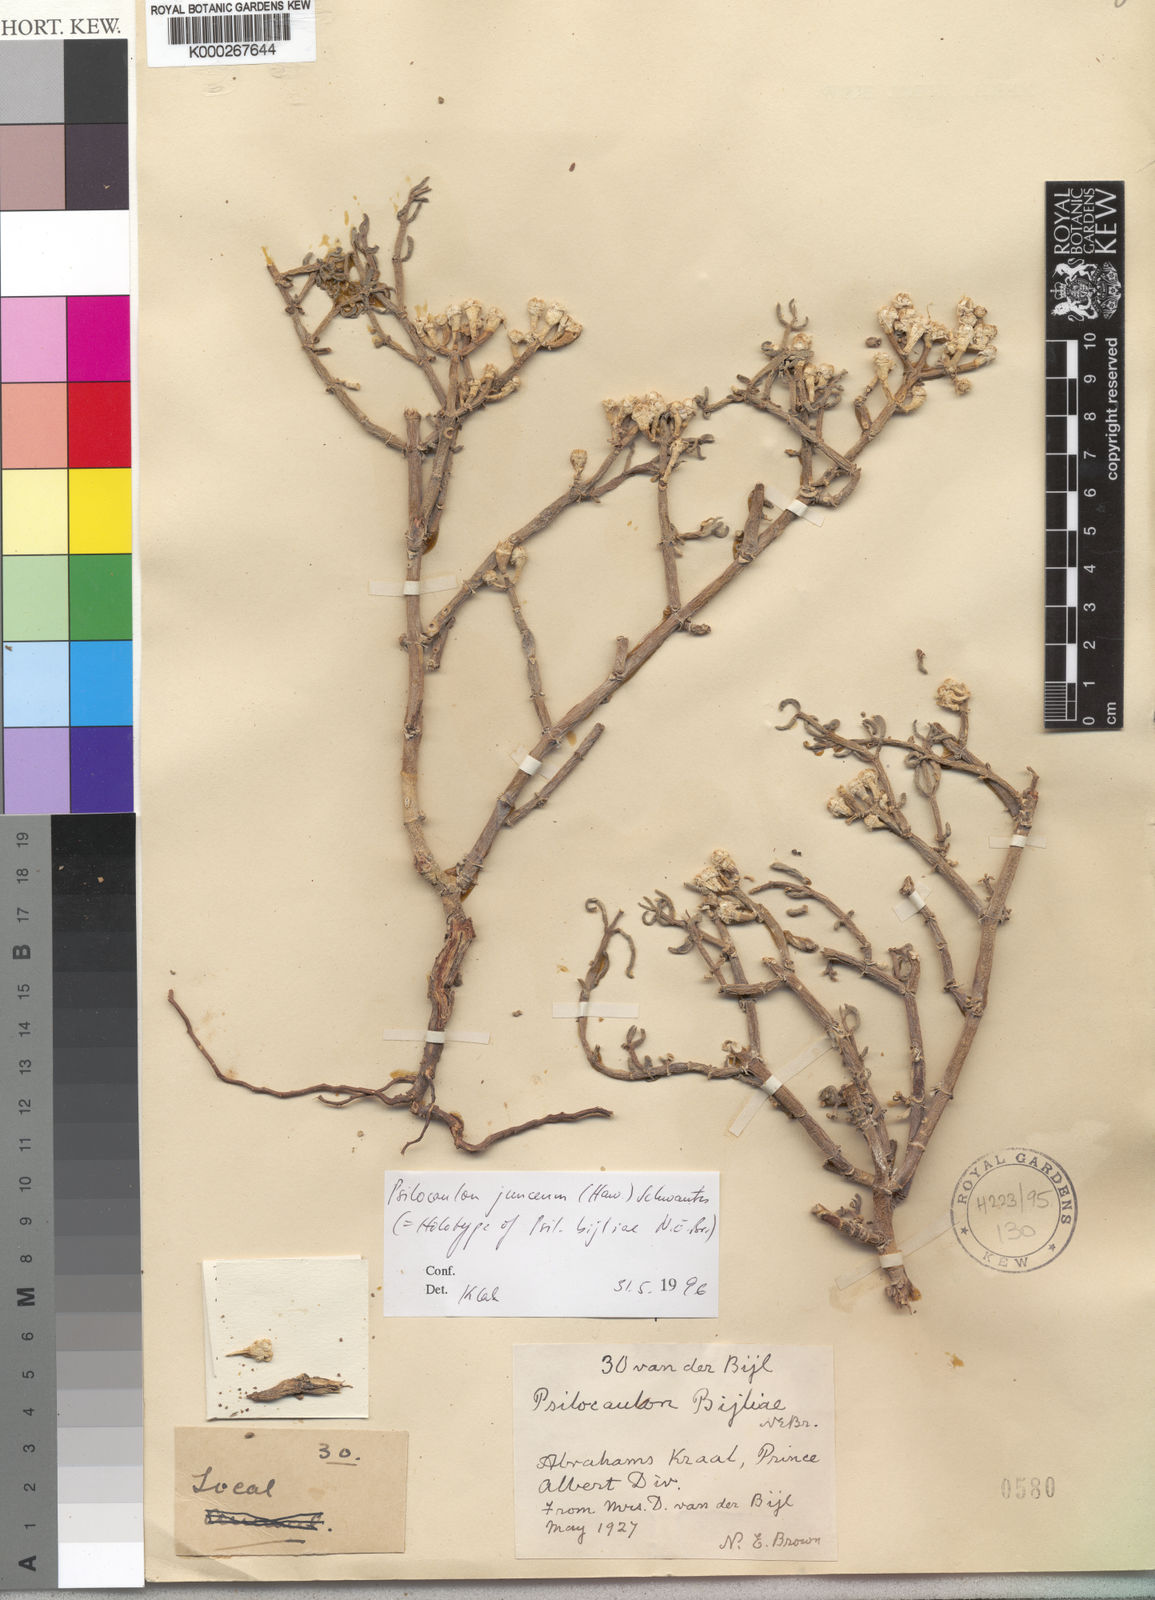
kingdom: Plantae
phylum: Tracheophyta
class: Magnoliopsida
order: Caryophyllales
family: Aizoaceae
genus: Mesembryanthemum
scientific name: Mesembryanthemum junceum
